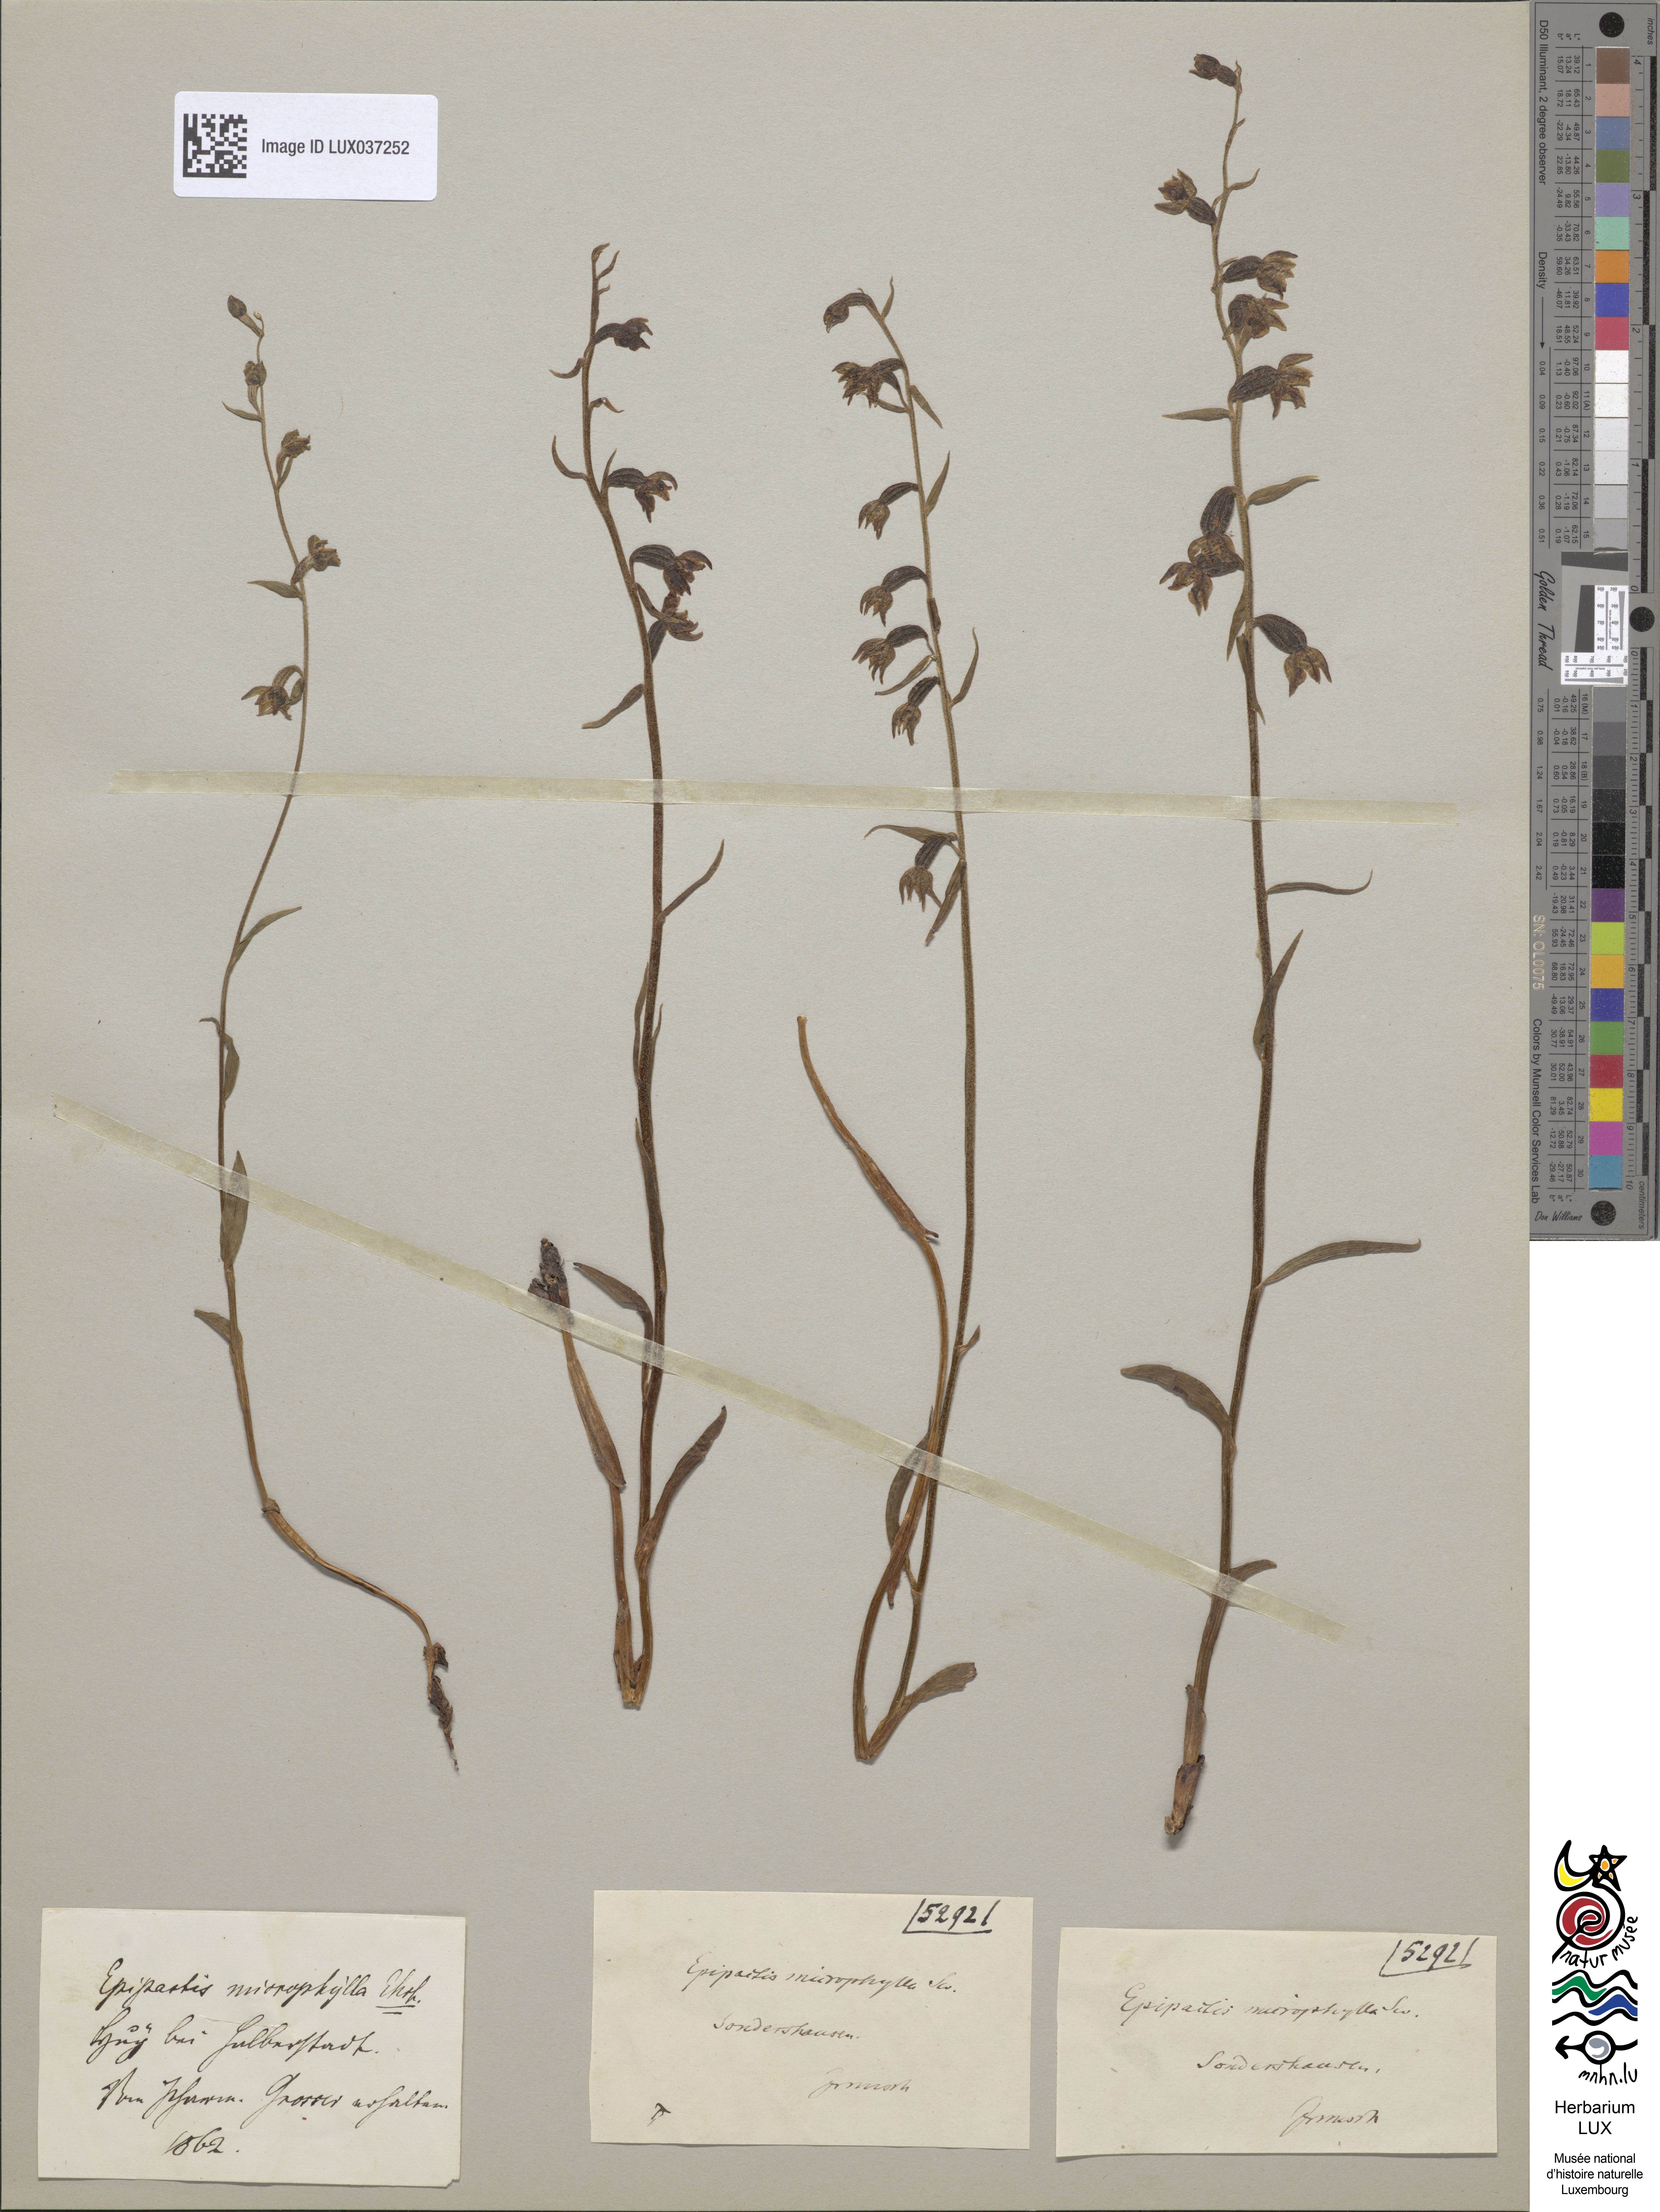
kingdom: Plantae
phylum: Tracheophyta
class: Liliopsida
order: Asparagales
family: Orchidaceae
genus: Epipactis
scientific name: Epipactis microphylla
